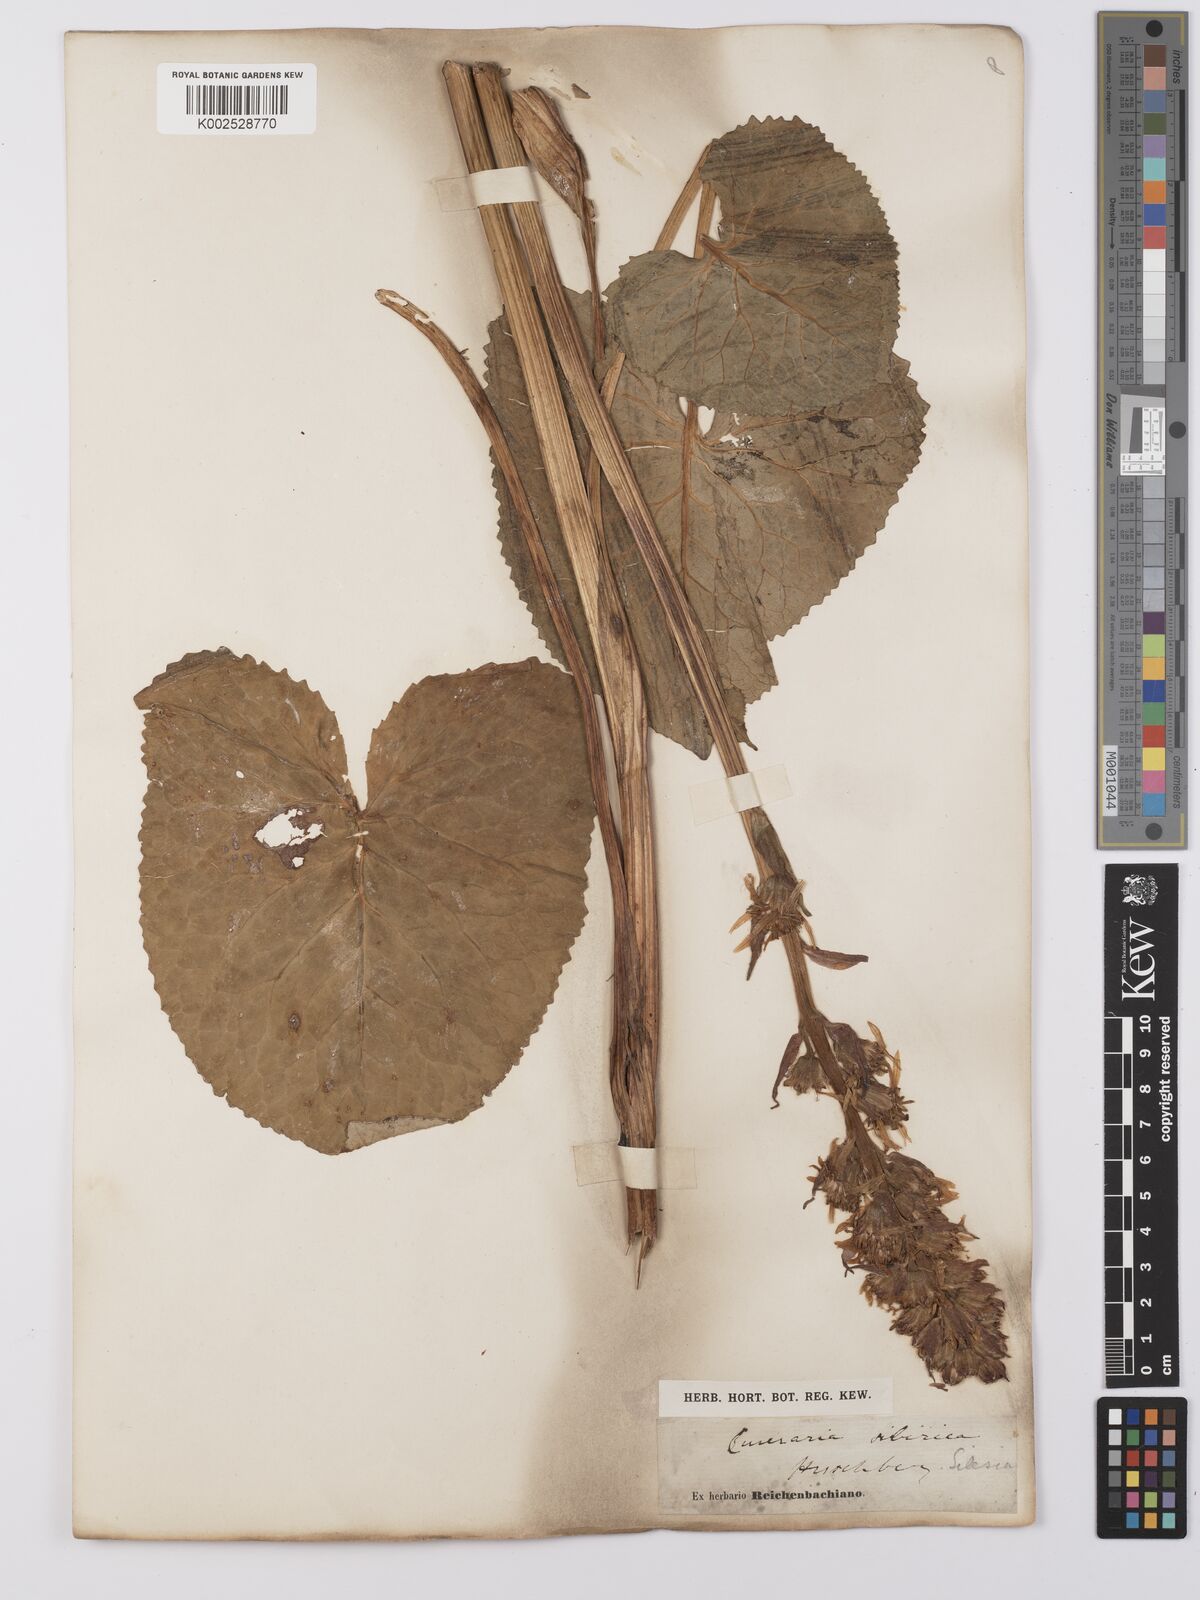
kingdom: Plantae
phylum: Tracheophyta
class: Magnoliopsida
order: Asterales
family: Asteraceae
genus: Ligularia
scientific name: Ligularia sibirica
